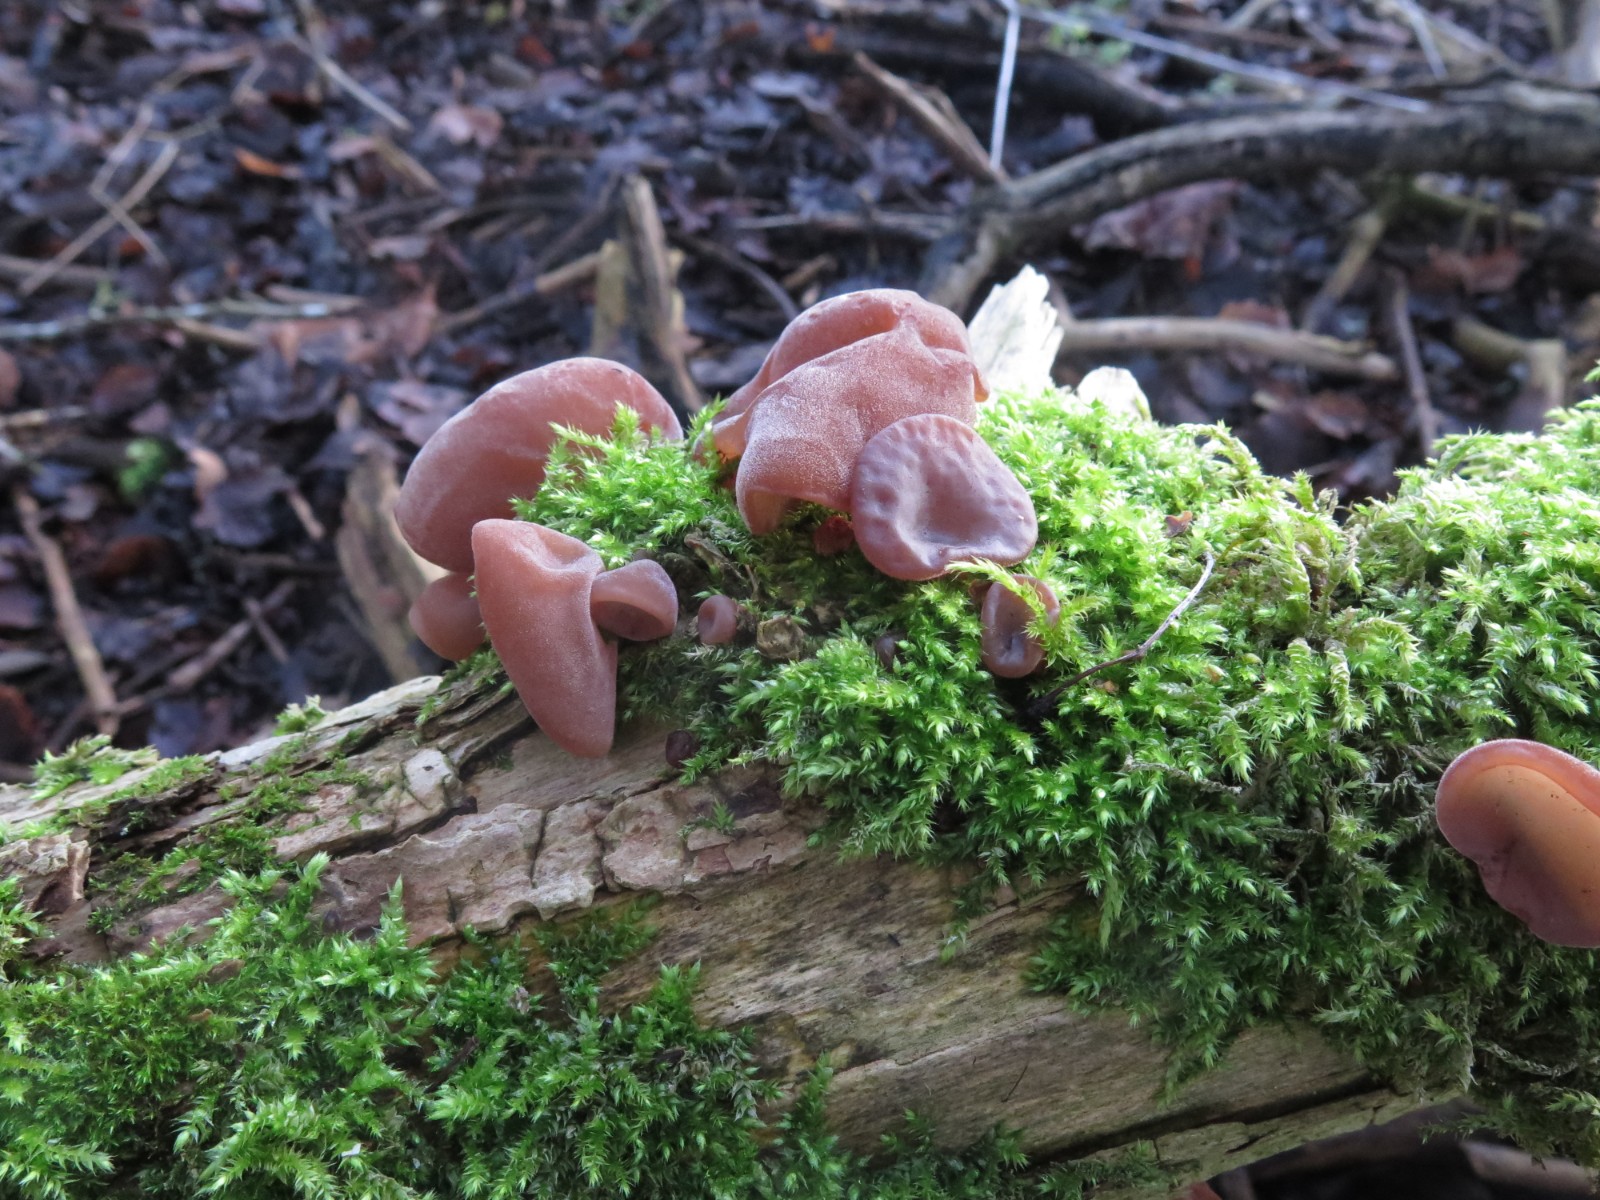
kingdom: Fungi
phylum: Basidiomycota
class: Agaricomycetes
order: Auriculariales
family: Auriculariaceae
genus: Auricularia
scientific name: Auricularia auricula-judae
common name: almindelig judasøre
